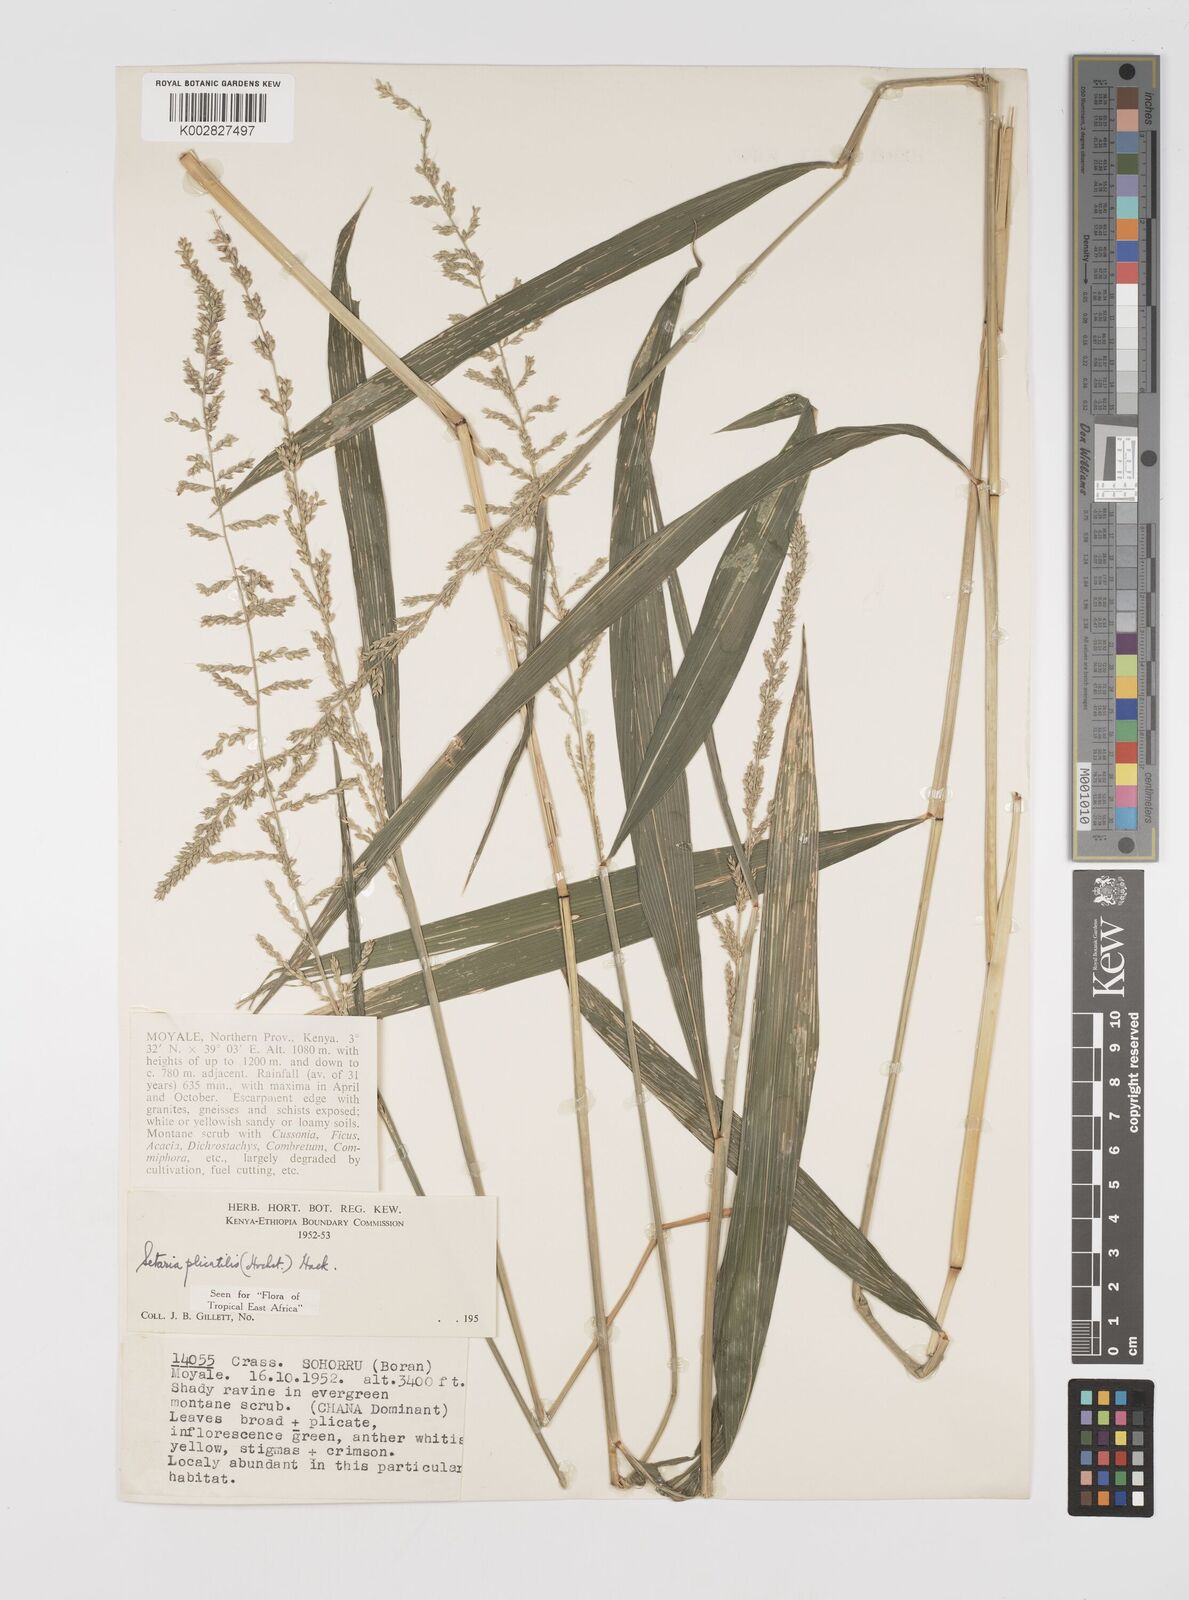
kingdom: Plantae
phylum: Tracheophyta
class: Liliopsida
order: Poales
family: Poaceae
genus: Setaria
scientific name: Setaria megaphylla
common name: Bigleaf bristlegrass
